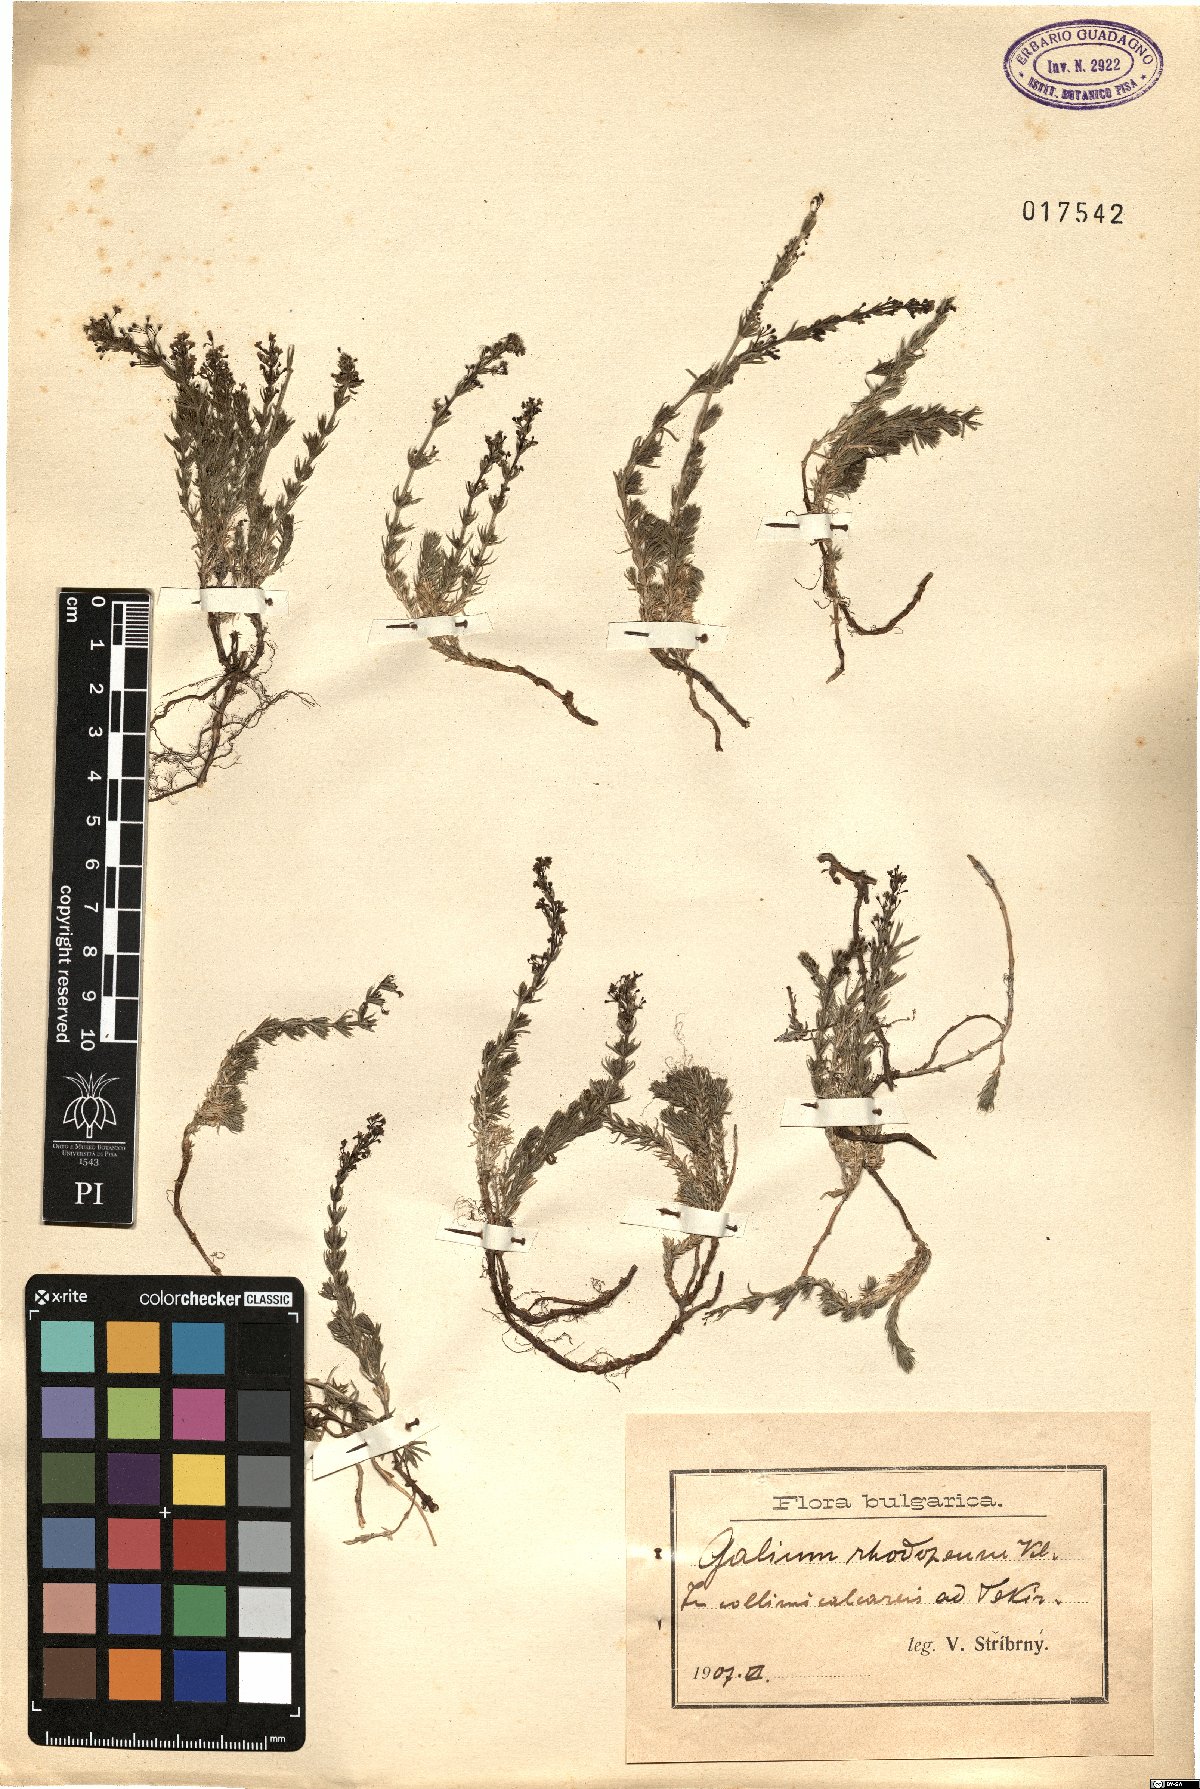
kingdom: Plantae
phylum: Tracheophyta
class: Magnoliopsida
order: Gentianales
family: Rubiaceae
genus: Galium
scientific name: Galium rhodopeum
